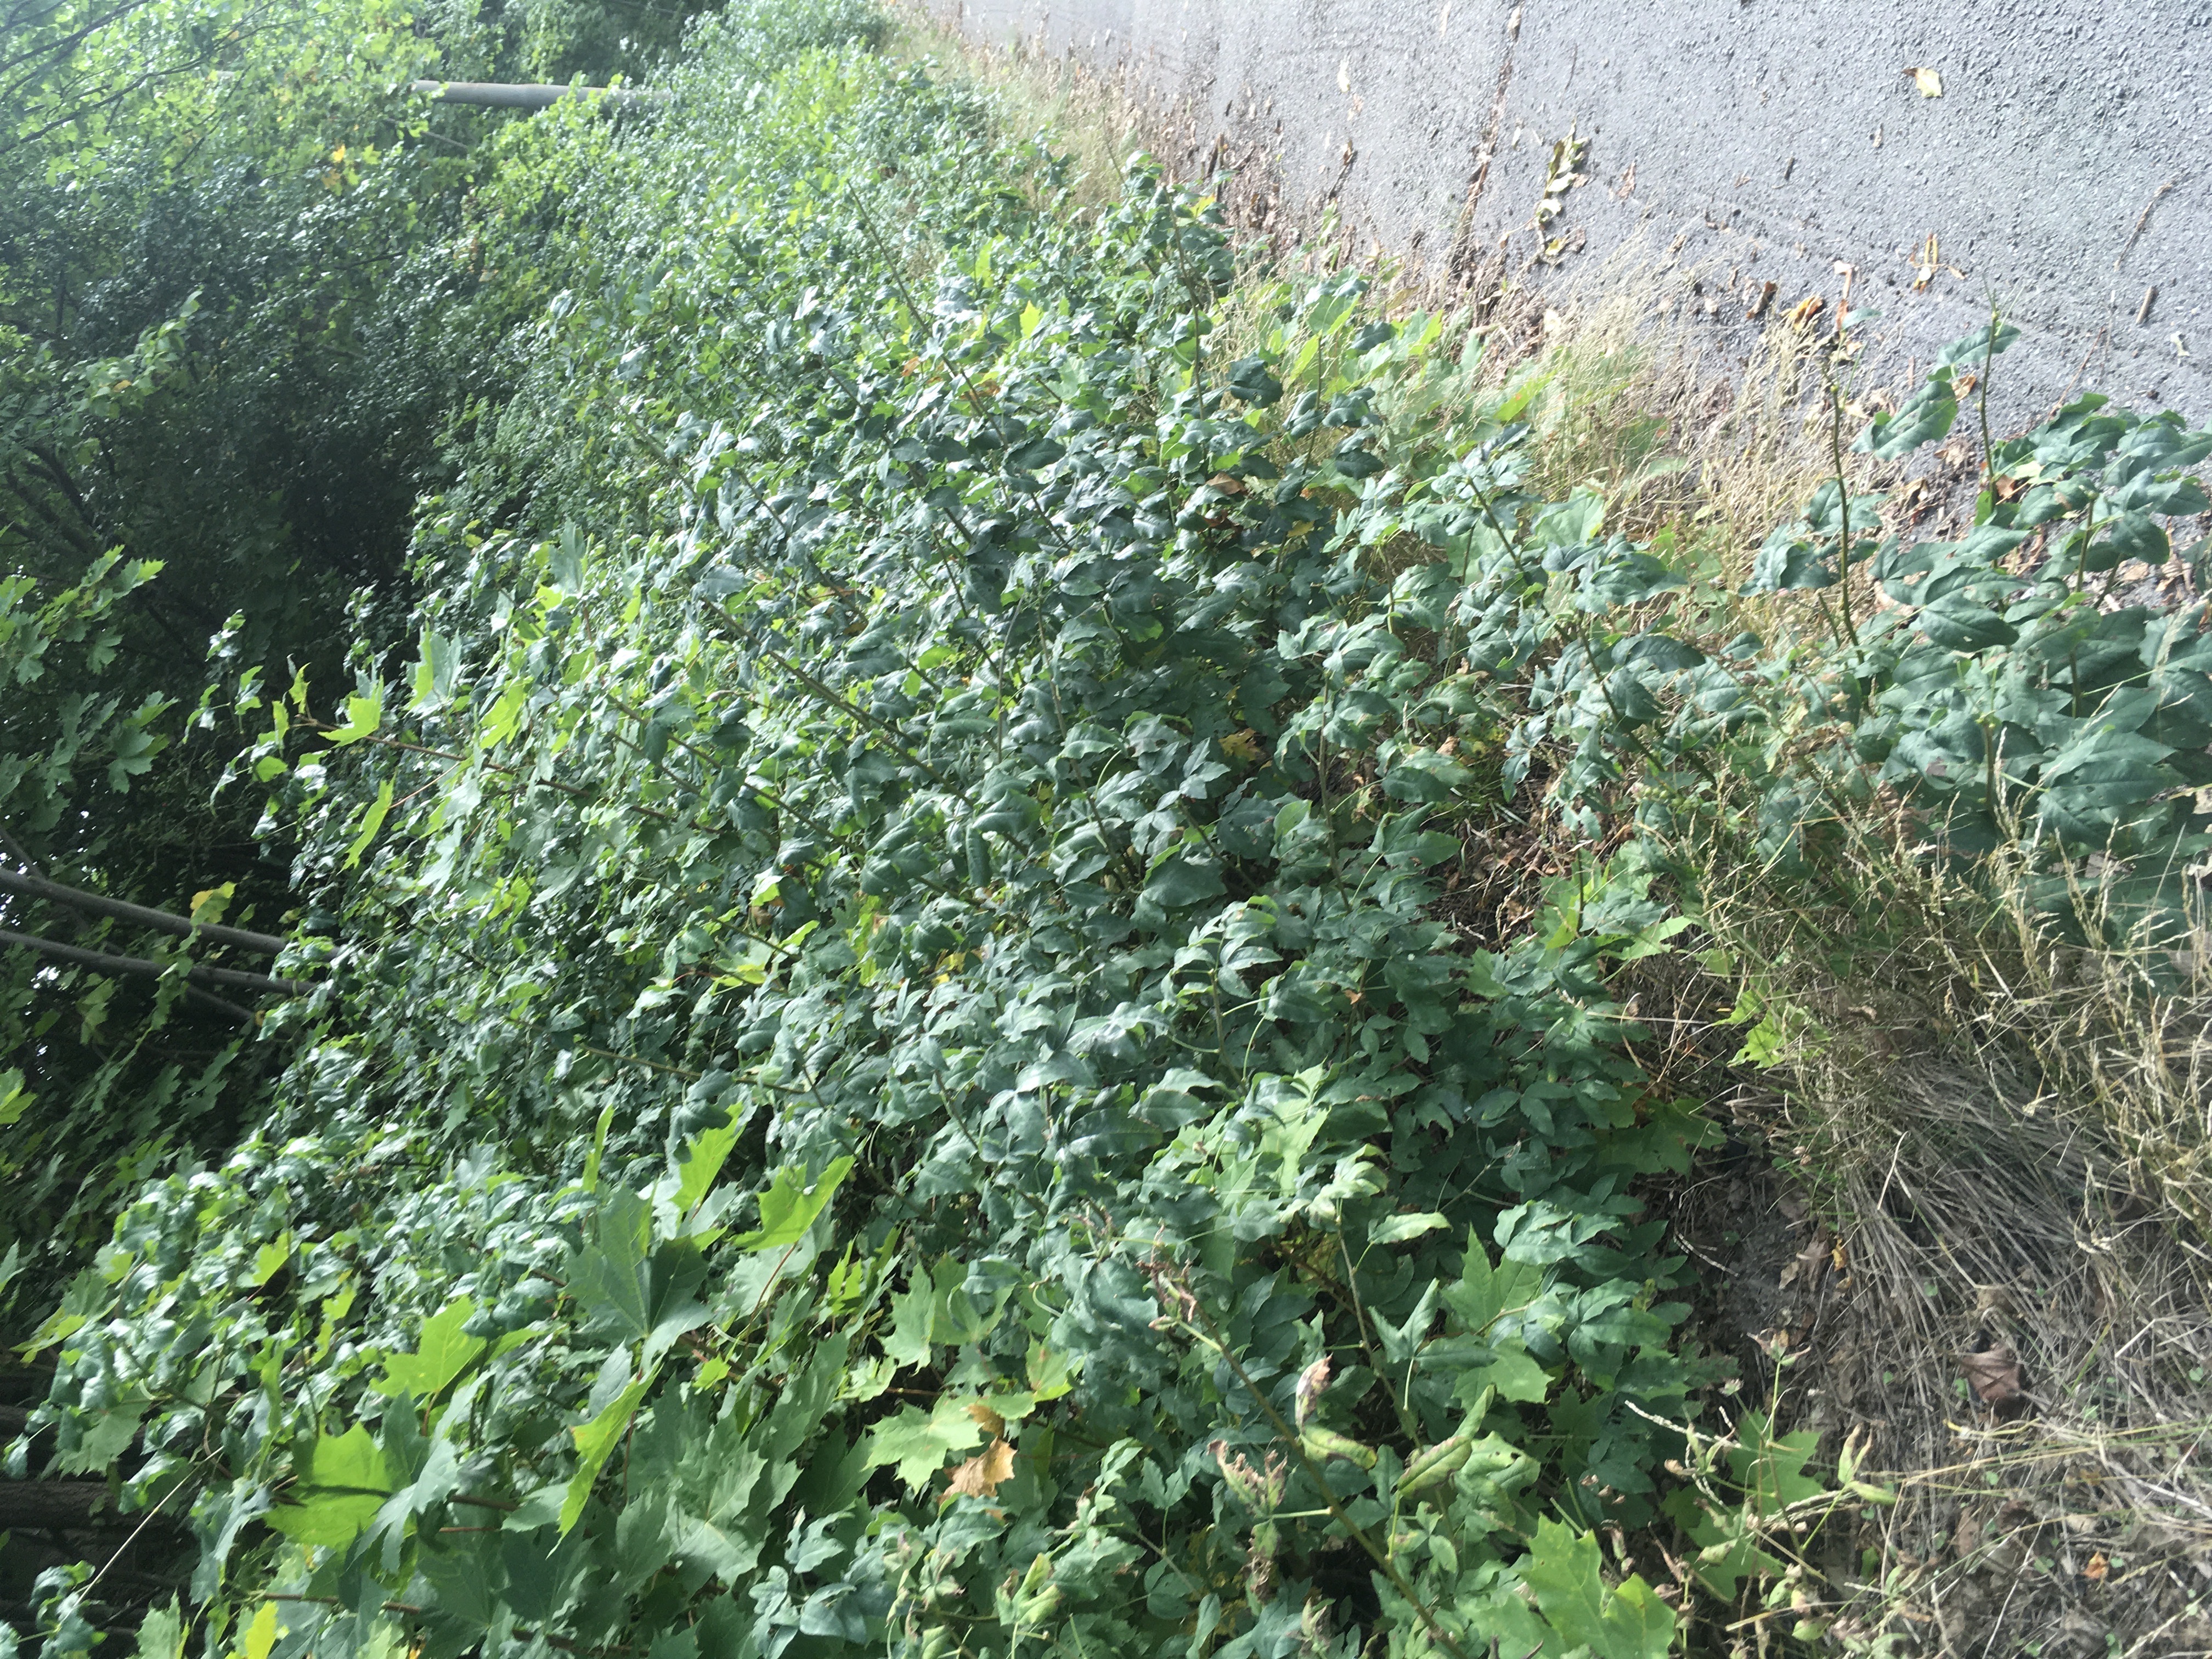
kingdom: Plantae
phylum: Tracheophyta
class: Magnoliopsida
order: Fabales
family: Fabaceae
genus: Laburnum
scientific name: Laburnum alpinum
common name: alpegullregn
